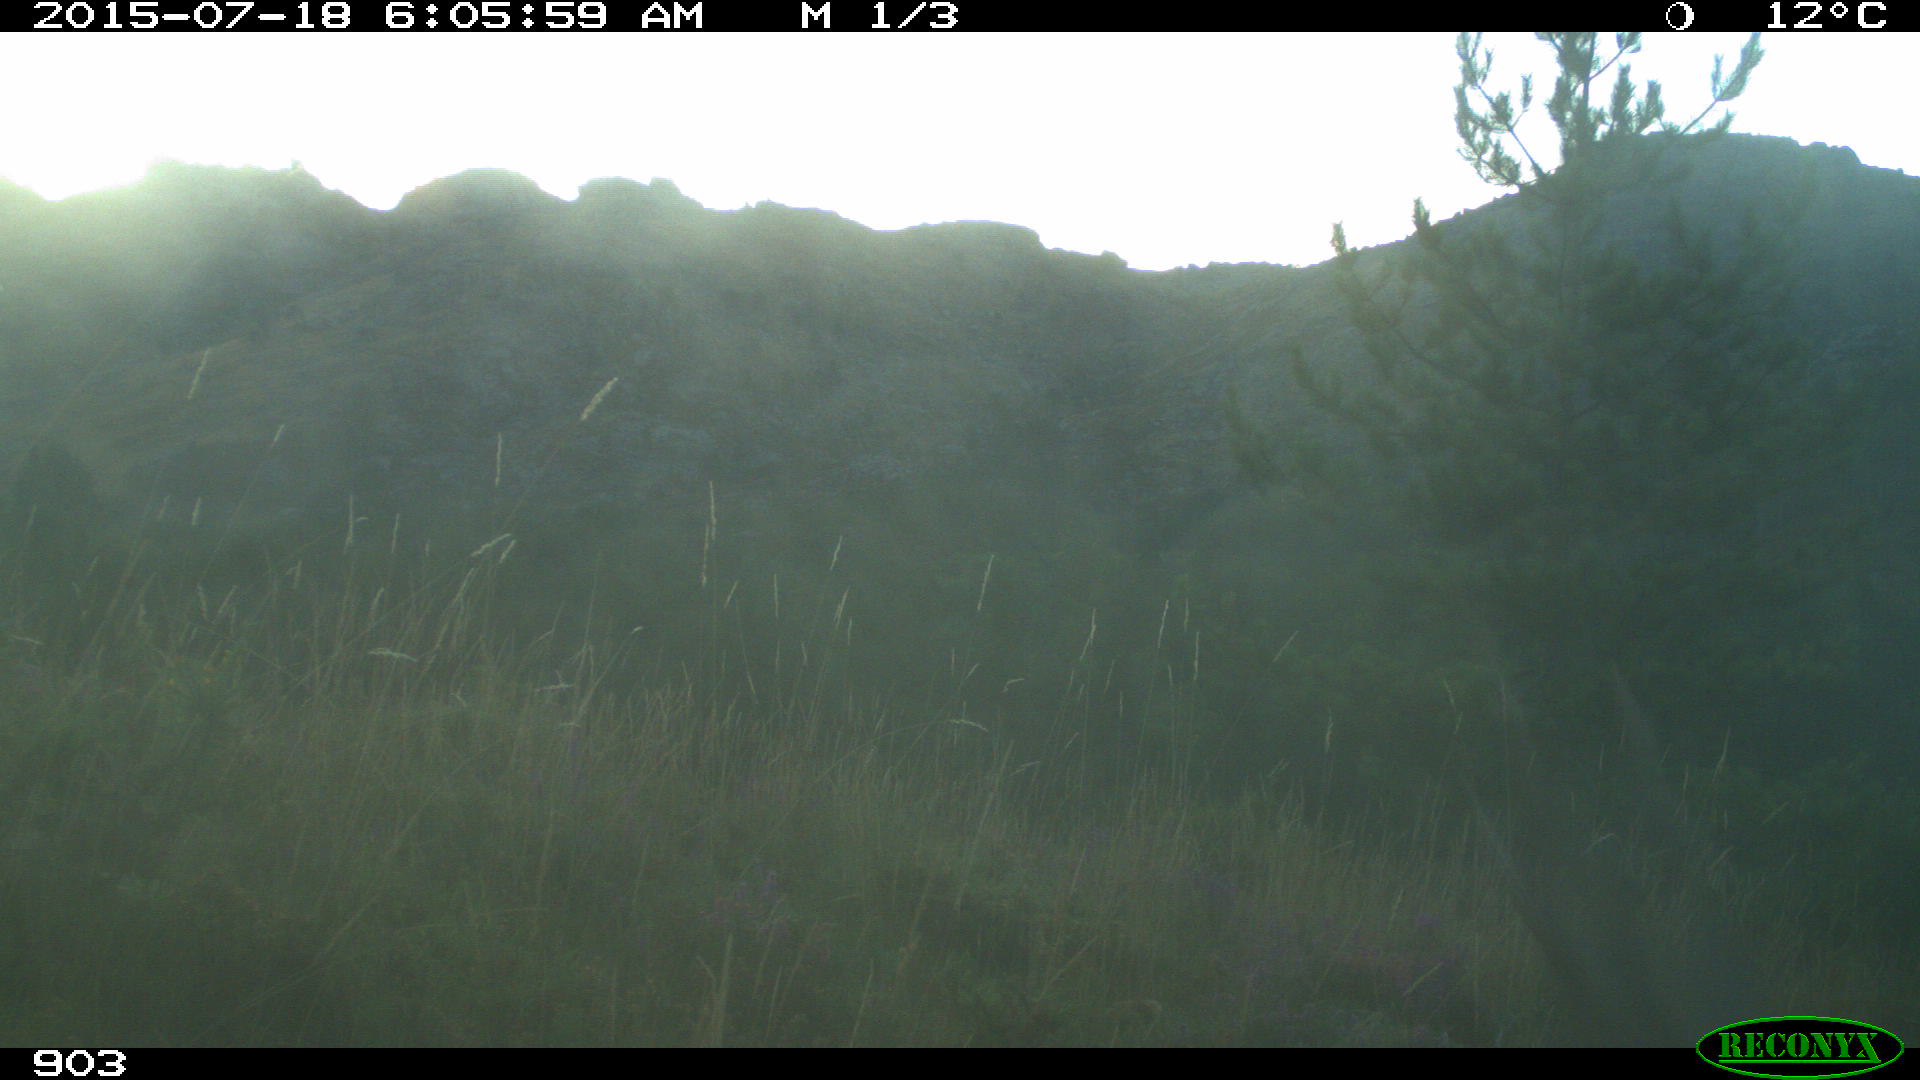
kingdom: Animalia
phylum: Chordata
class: Mammalia
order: Artiodactyla
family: Cervidae
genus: Capreolus
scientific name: Capreolus capreolus
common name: Western roe deer
